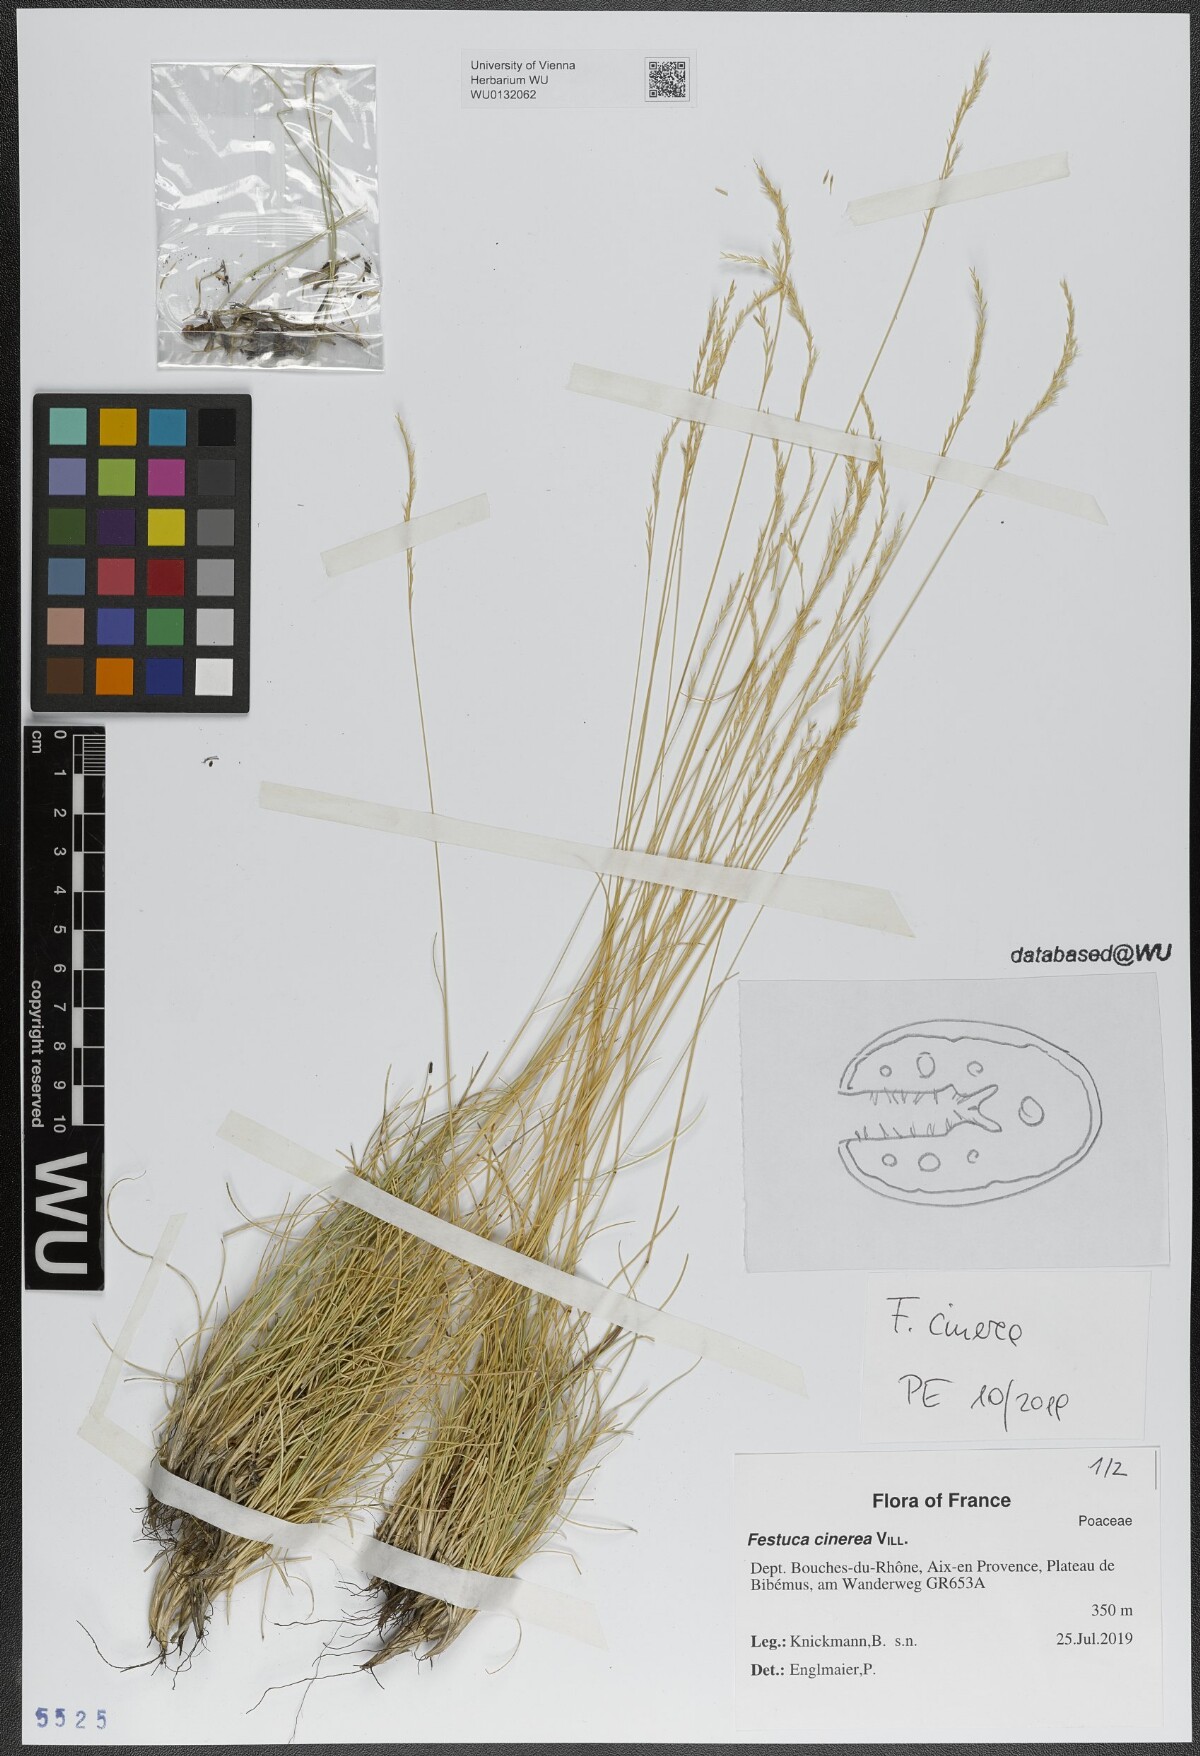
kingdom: Plantae
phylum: Tracheophyta
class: Liliopsida
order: Poales
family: Poaceae
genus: Festuca
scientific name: Festuca cinerea
